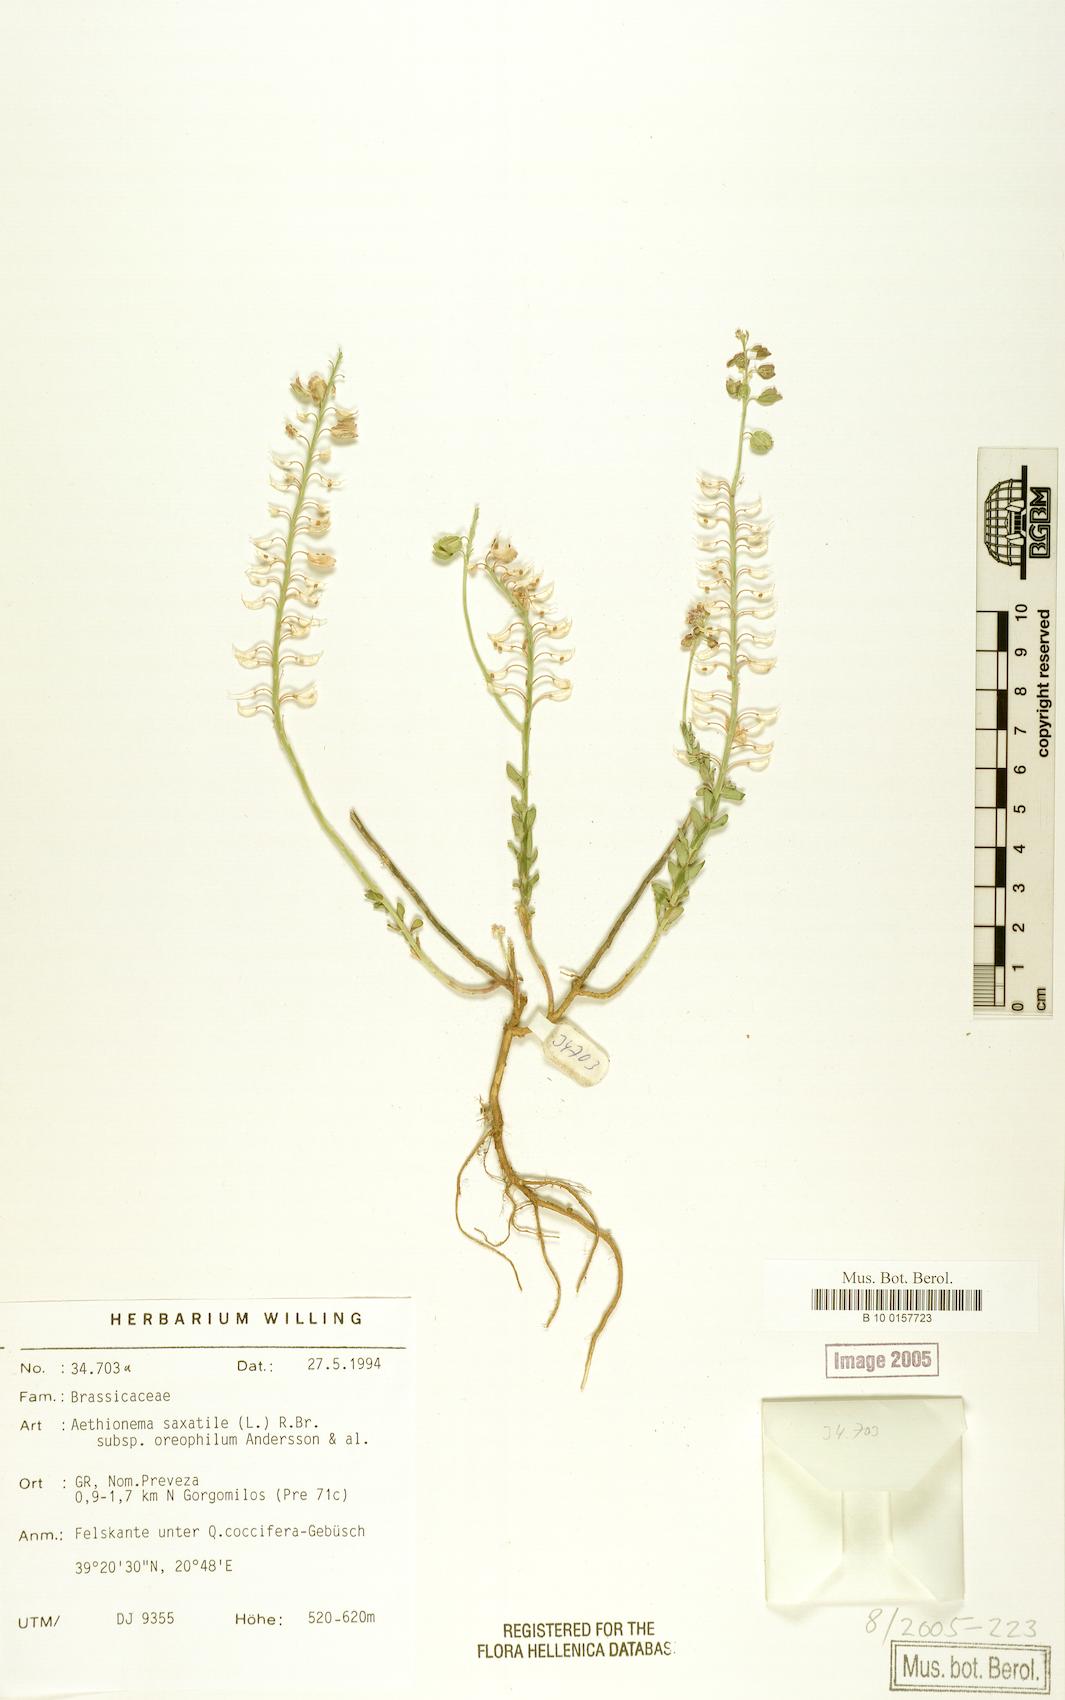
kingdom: Plantae
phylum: Tracheophyta
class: Magnoliopsida
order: Brassicales
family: Brassicaceae
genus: Aethionema
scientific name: Aethionema saxatile
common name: Burnt candytuft
